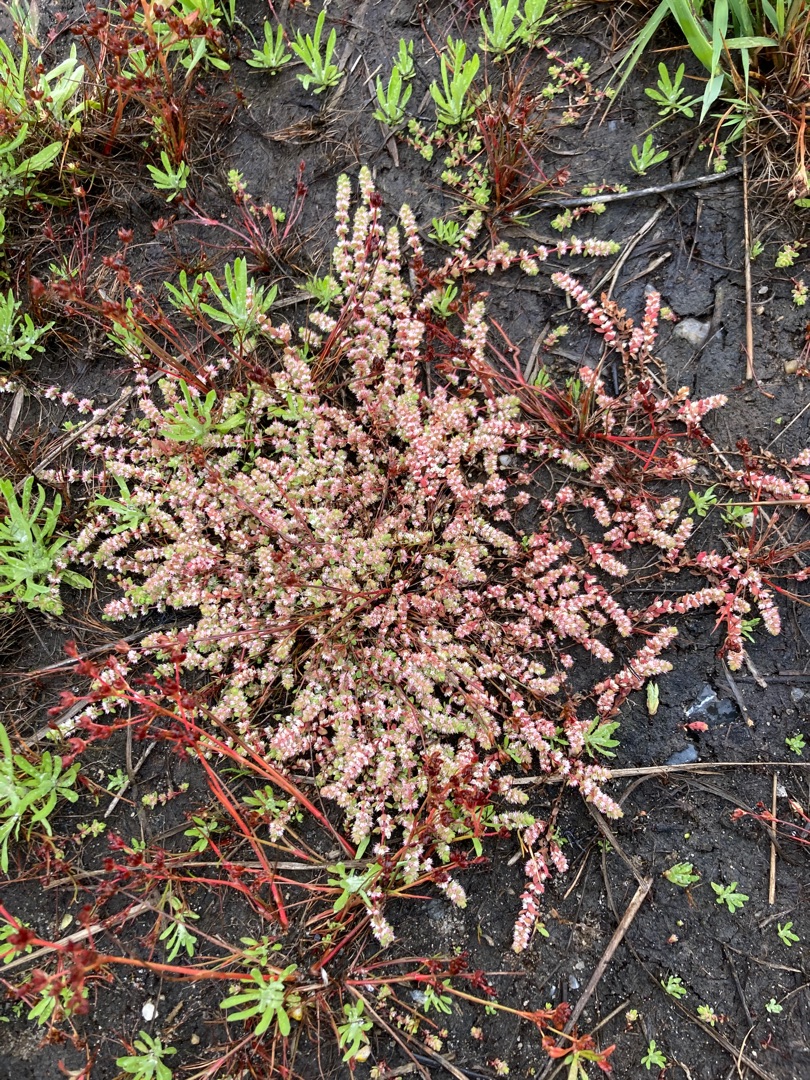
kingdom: Plantae
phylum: Tracheophyta
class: Magnoliopsida
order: Caryophyllales
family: Caryophyllaceae
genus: Illecebrum
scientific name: Illecebrum verticillatum
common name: Bruskbæger
